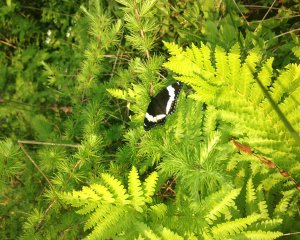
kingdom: Animalia
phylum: Arthropoda
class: Insecta
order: Lepidoptera
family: Nymphalidae
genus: Limenitis
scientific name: Limenitis arthemis
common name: Red-spotted Admiral
